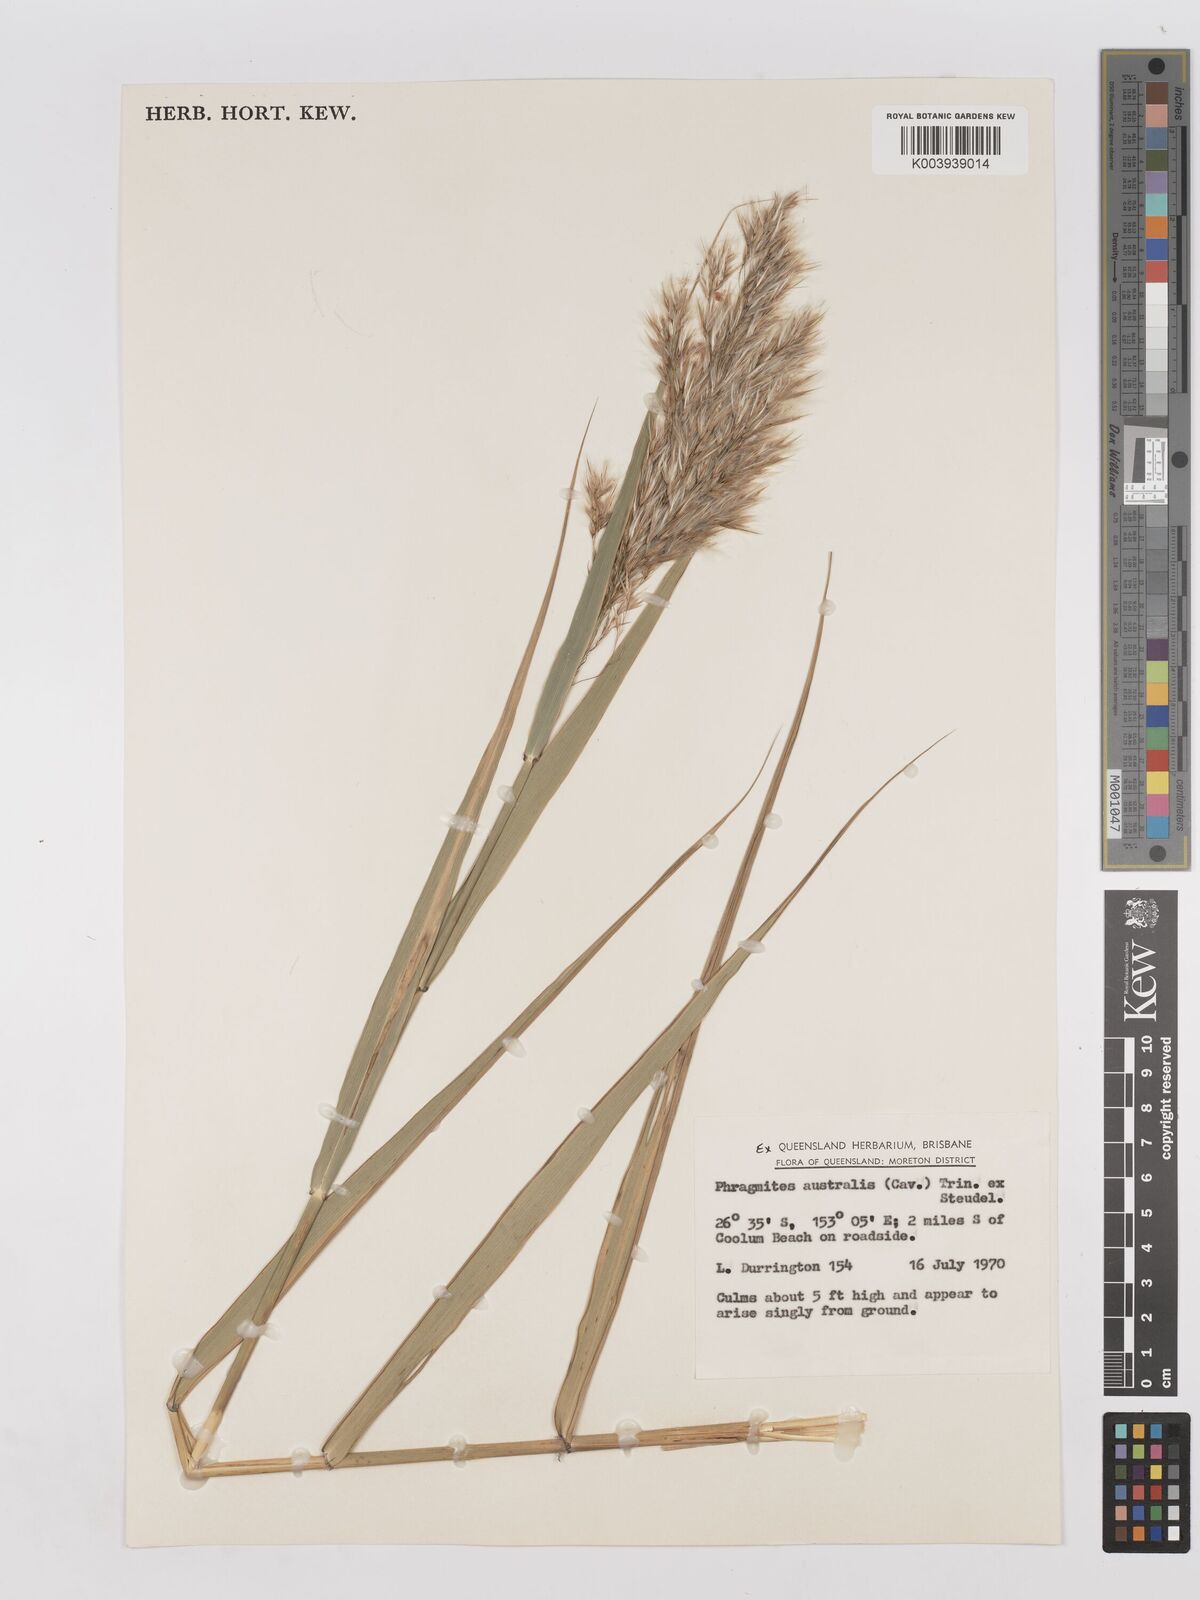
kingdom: Plantae
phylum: Tracheophyta
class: Liliopsida
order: Poales
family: Poaceae
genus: Phragmites
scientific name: Phragmites australis
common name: Common reed
